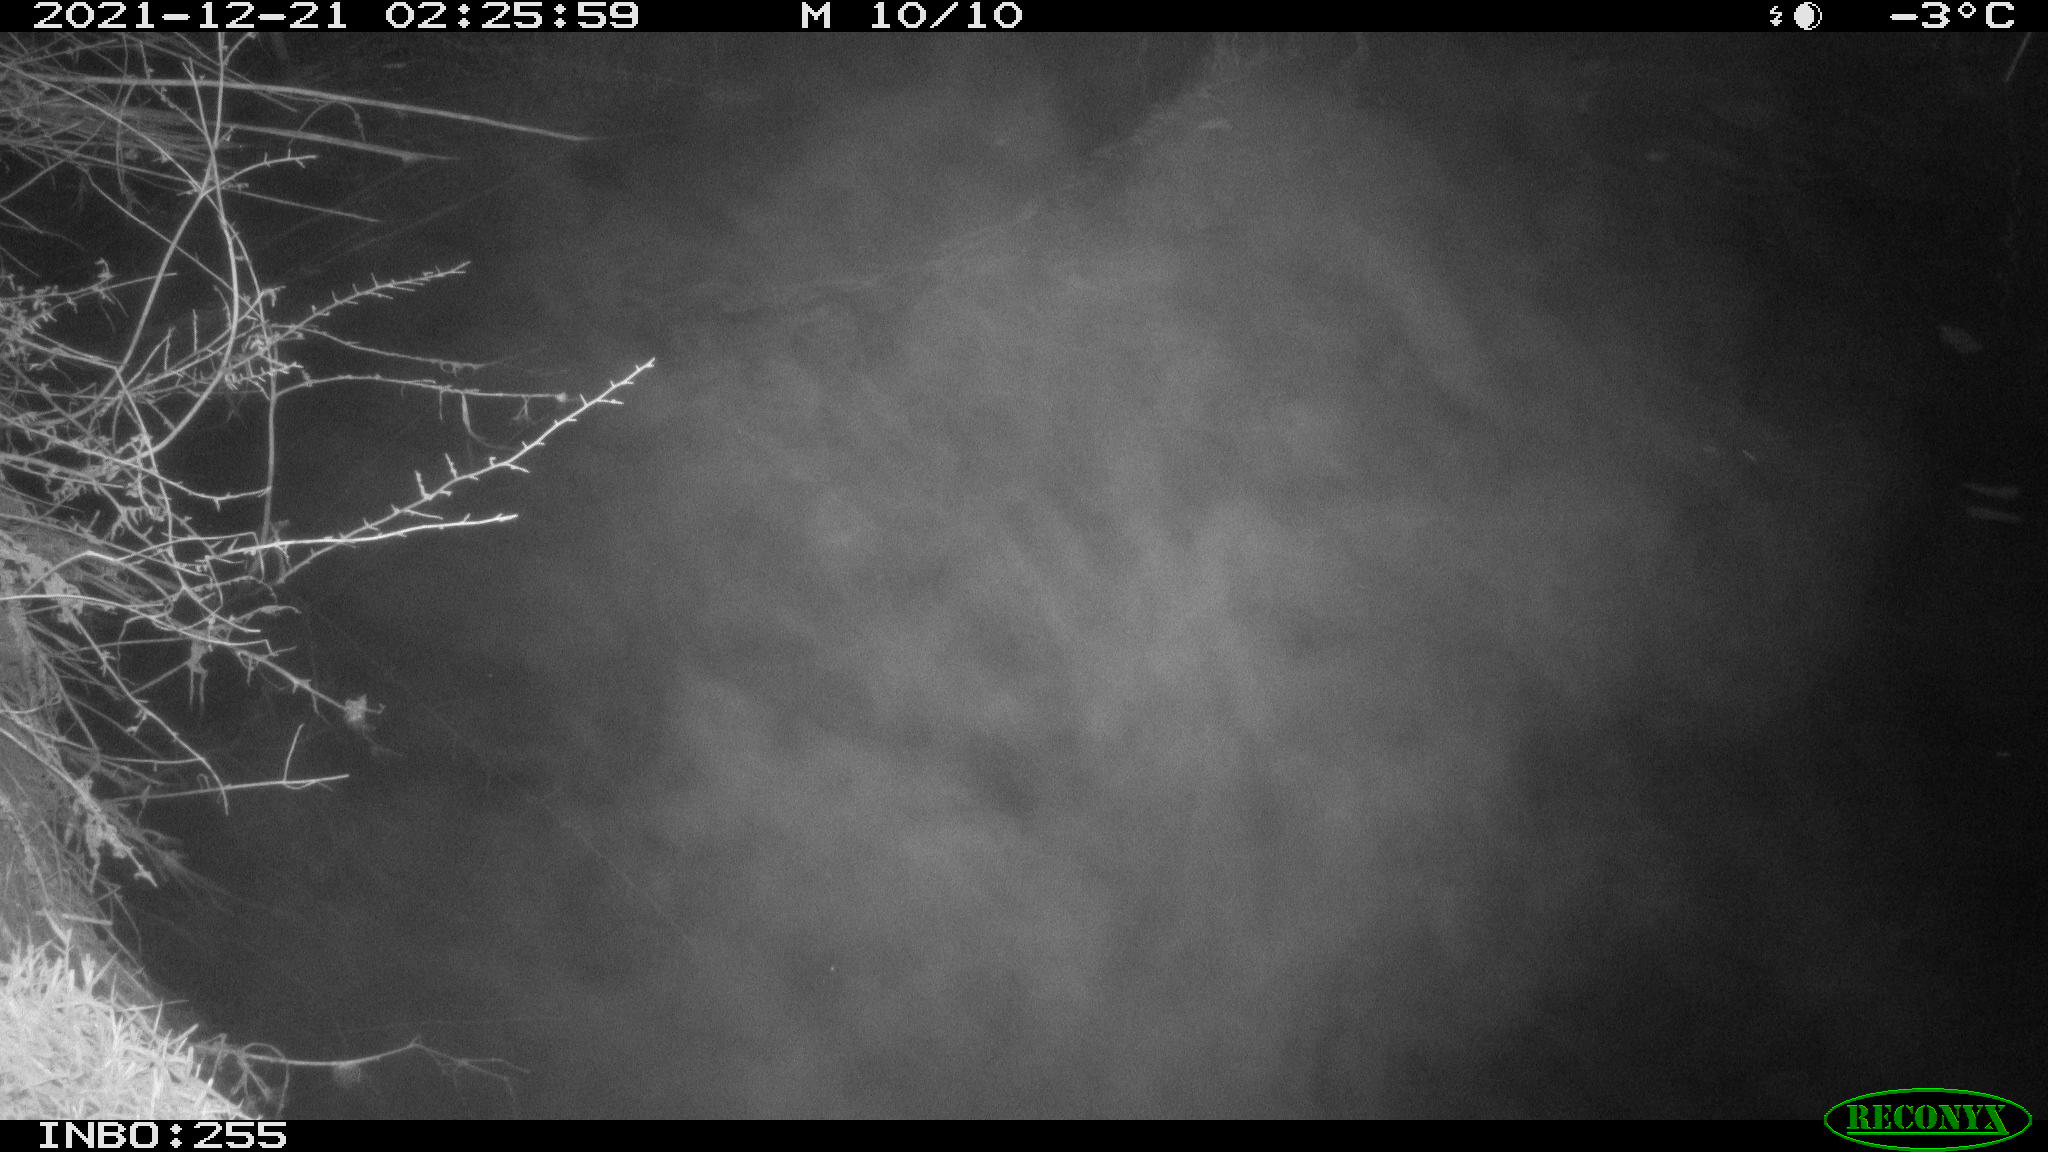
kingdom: Animalia
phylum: Chordata
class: Aves
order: Anseriformes
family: Anatidae
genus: Anas
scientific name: Anas
